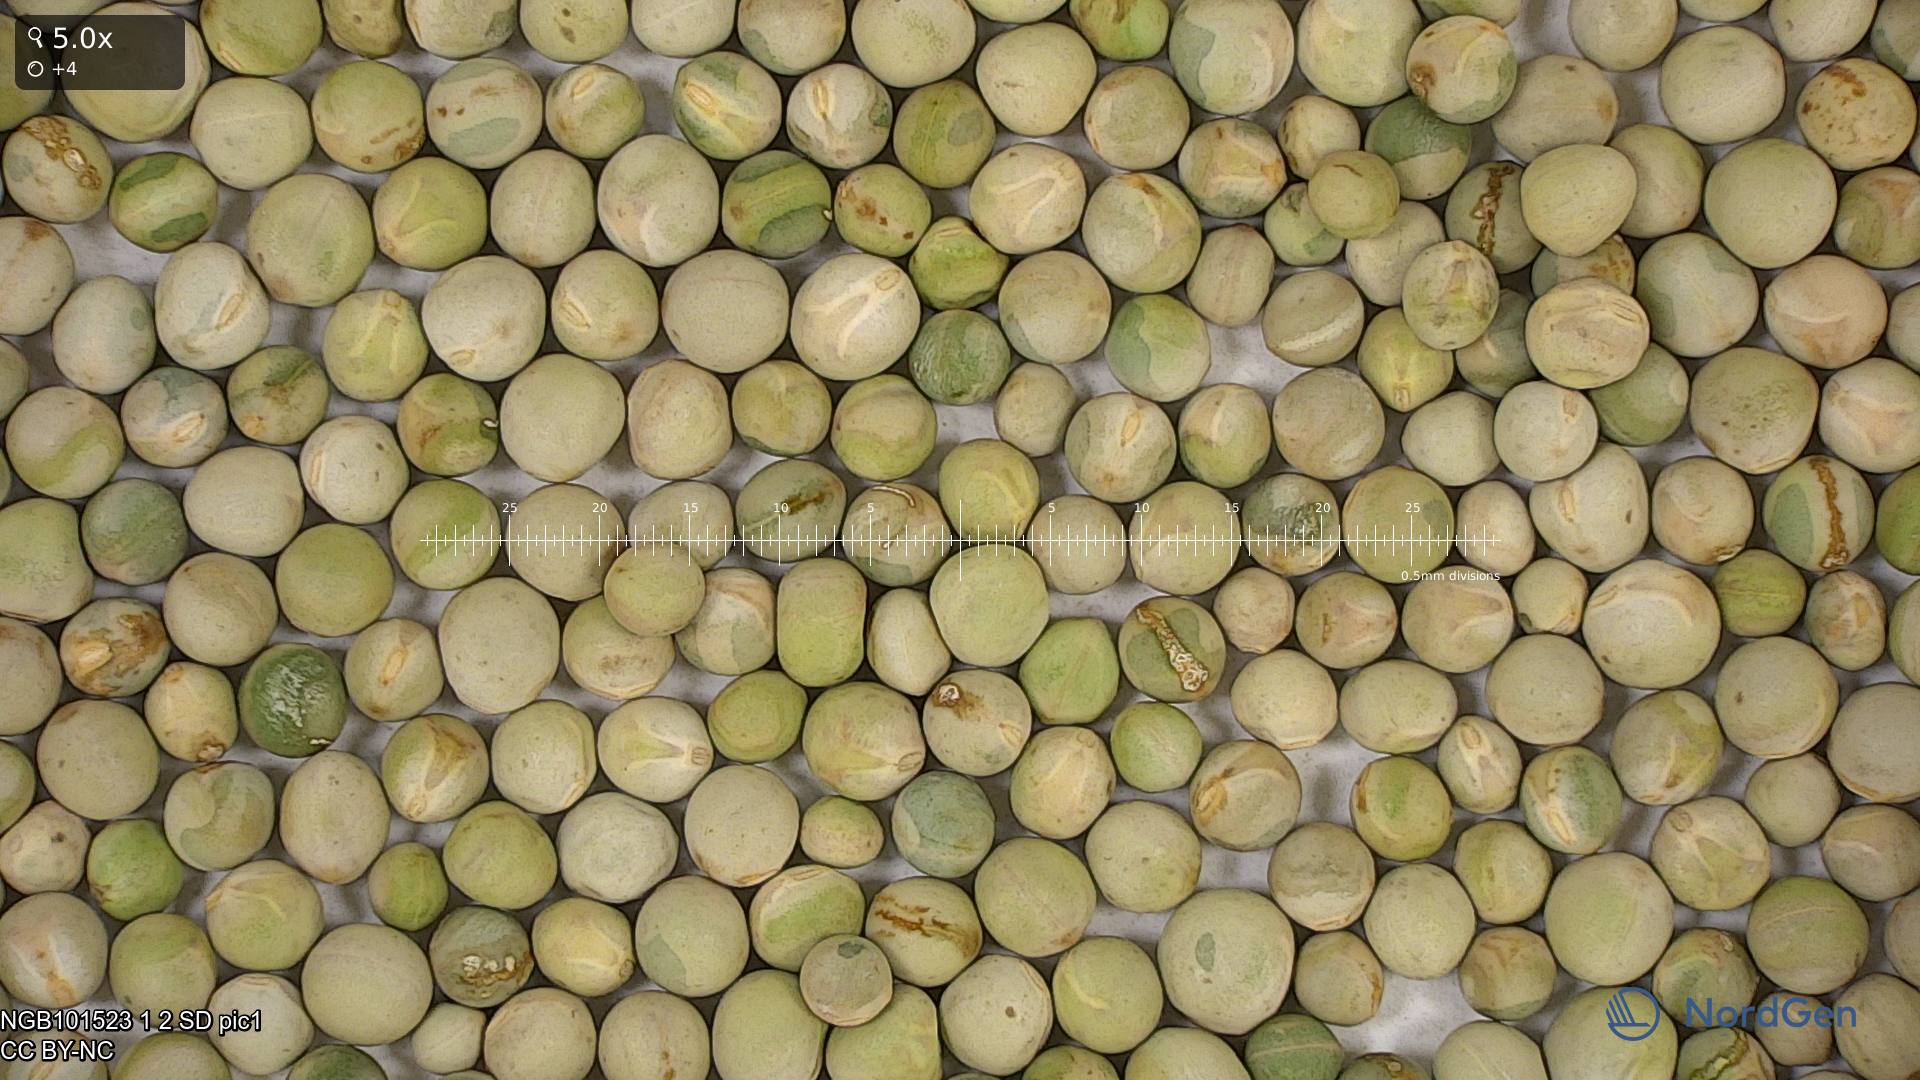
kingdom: Plantae
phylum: Tracheophyta
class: Magnoliopsida
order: Fabales
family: Fabaceae
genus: Lathyrus
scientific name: Lathyrus oleraceus
